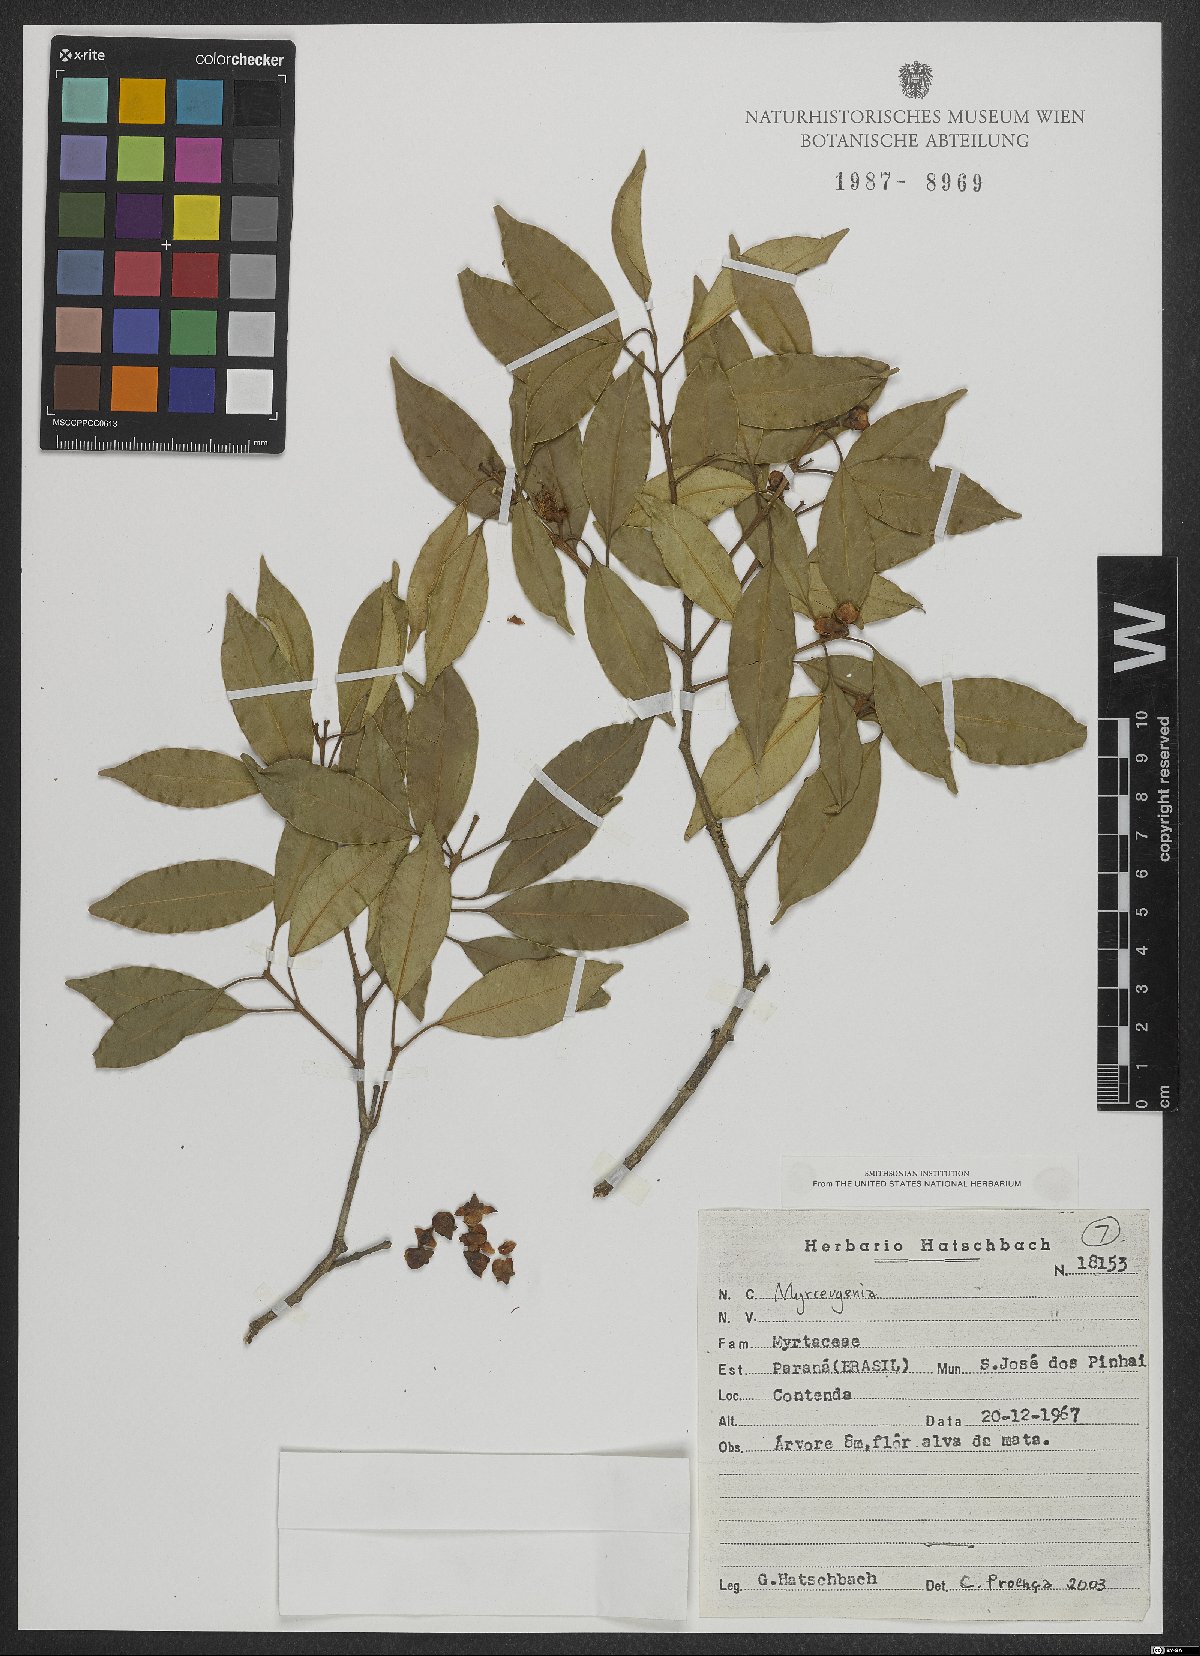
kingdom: Plantae
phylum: Tracheophyta
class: Magnoliopsida
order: Myrtales
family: Myrtaceae
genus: Myrceugenia
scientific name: Myrceugenia
